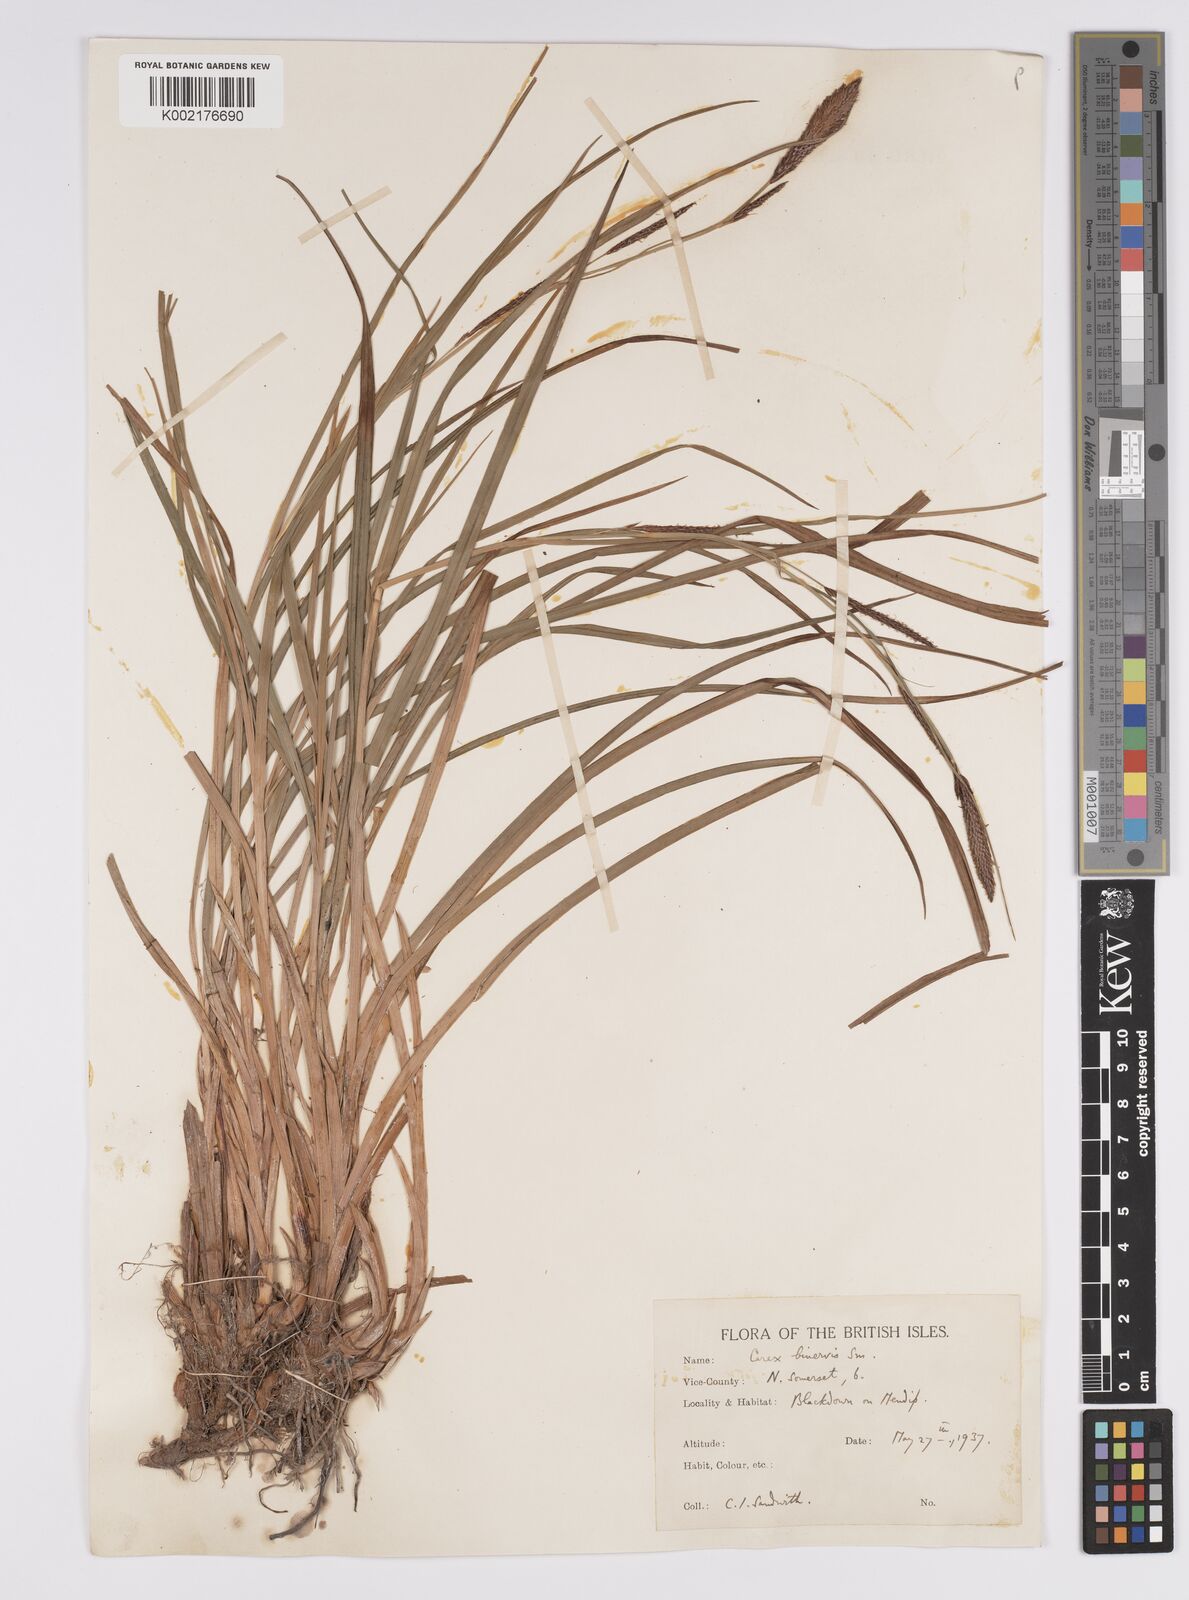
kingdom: Plantae
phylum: Tracheophyta
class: Liliopsida
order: Poales
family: Cyperaceae
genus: Carex
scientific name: Carex binervis
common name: Green-ribbed sedge
